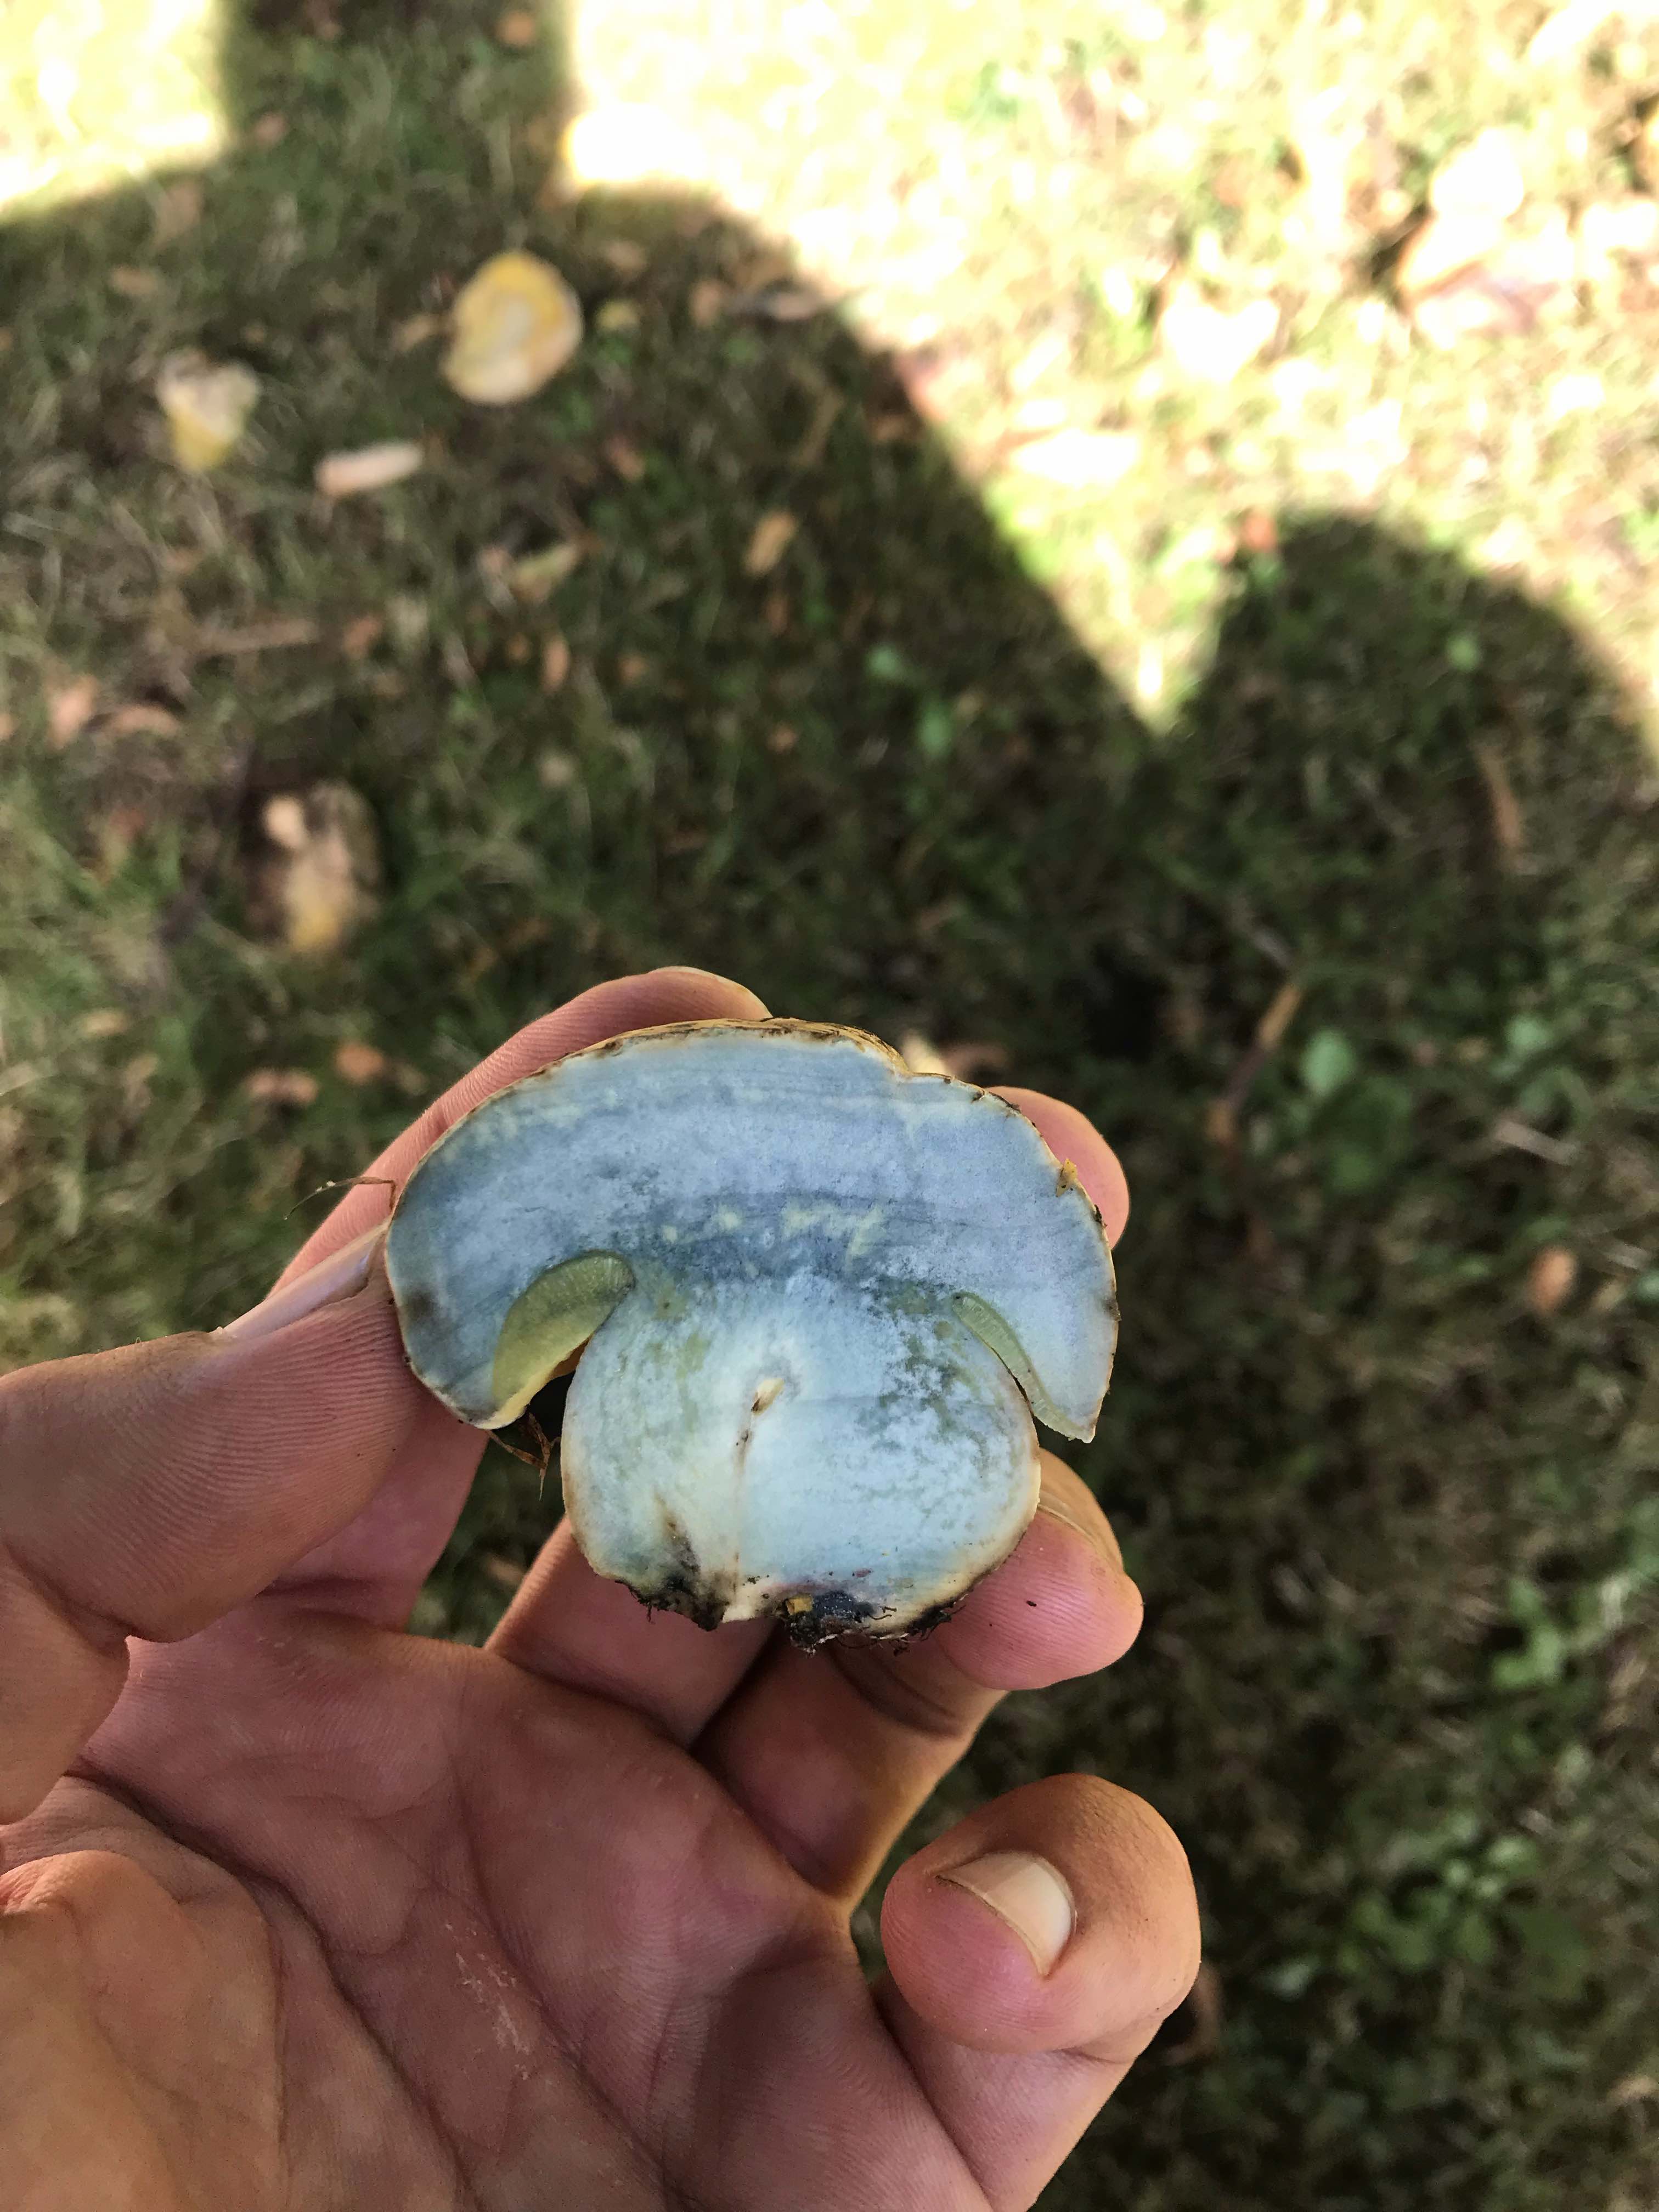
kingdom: Fungi
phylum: Basidiomycota
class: Agaricomycetes
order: Boletales
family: Boletaceae
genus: Caloboletus
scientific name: Caloboletus radicans
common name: rod-rørhat
